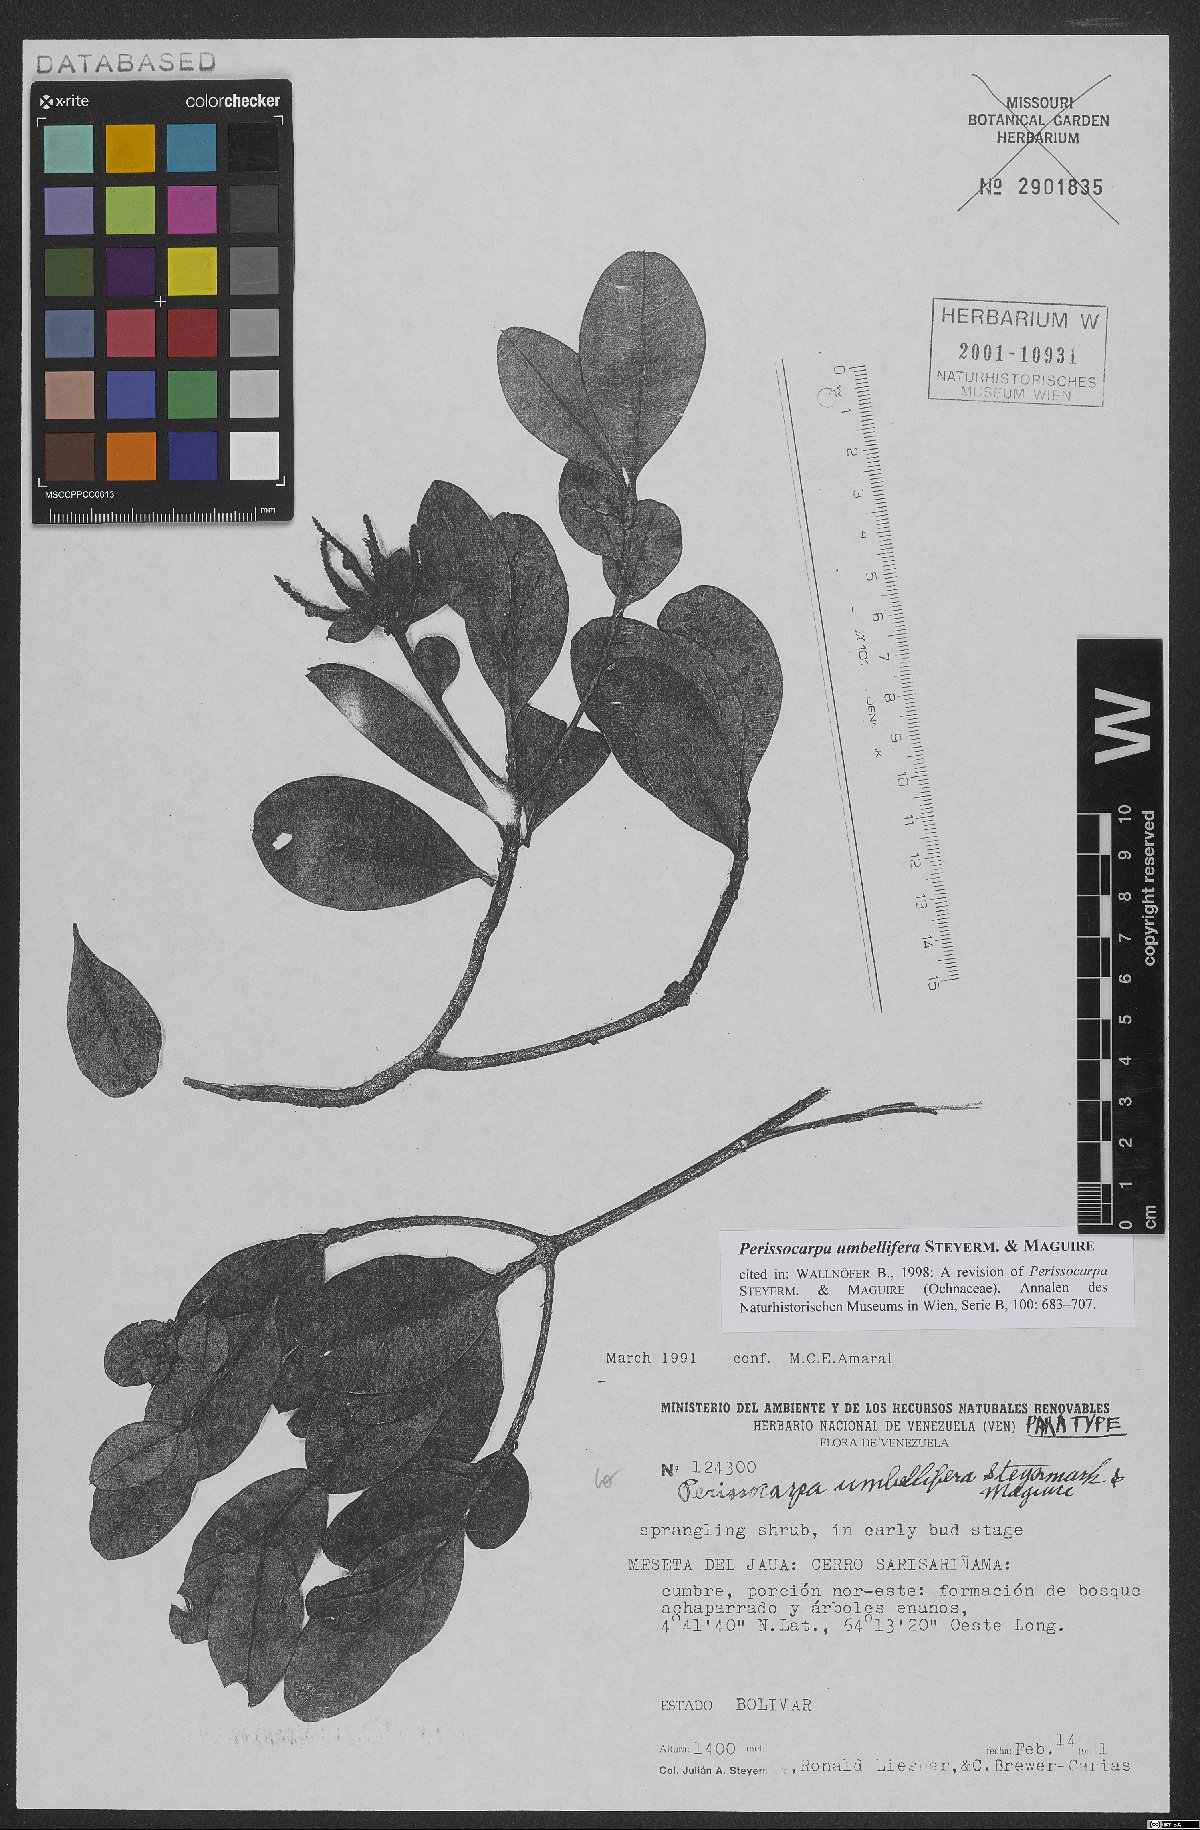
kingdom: Plantae
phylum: Tracheophyta
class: Magnoliopsida
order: Malpighiales
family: Ochnaceae
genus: Perissocarpa
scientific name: Perissocarpa umbellifera
